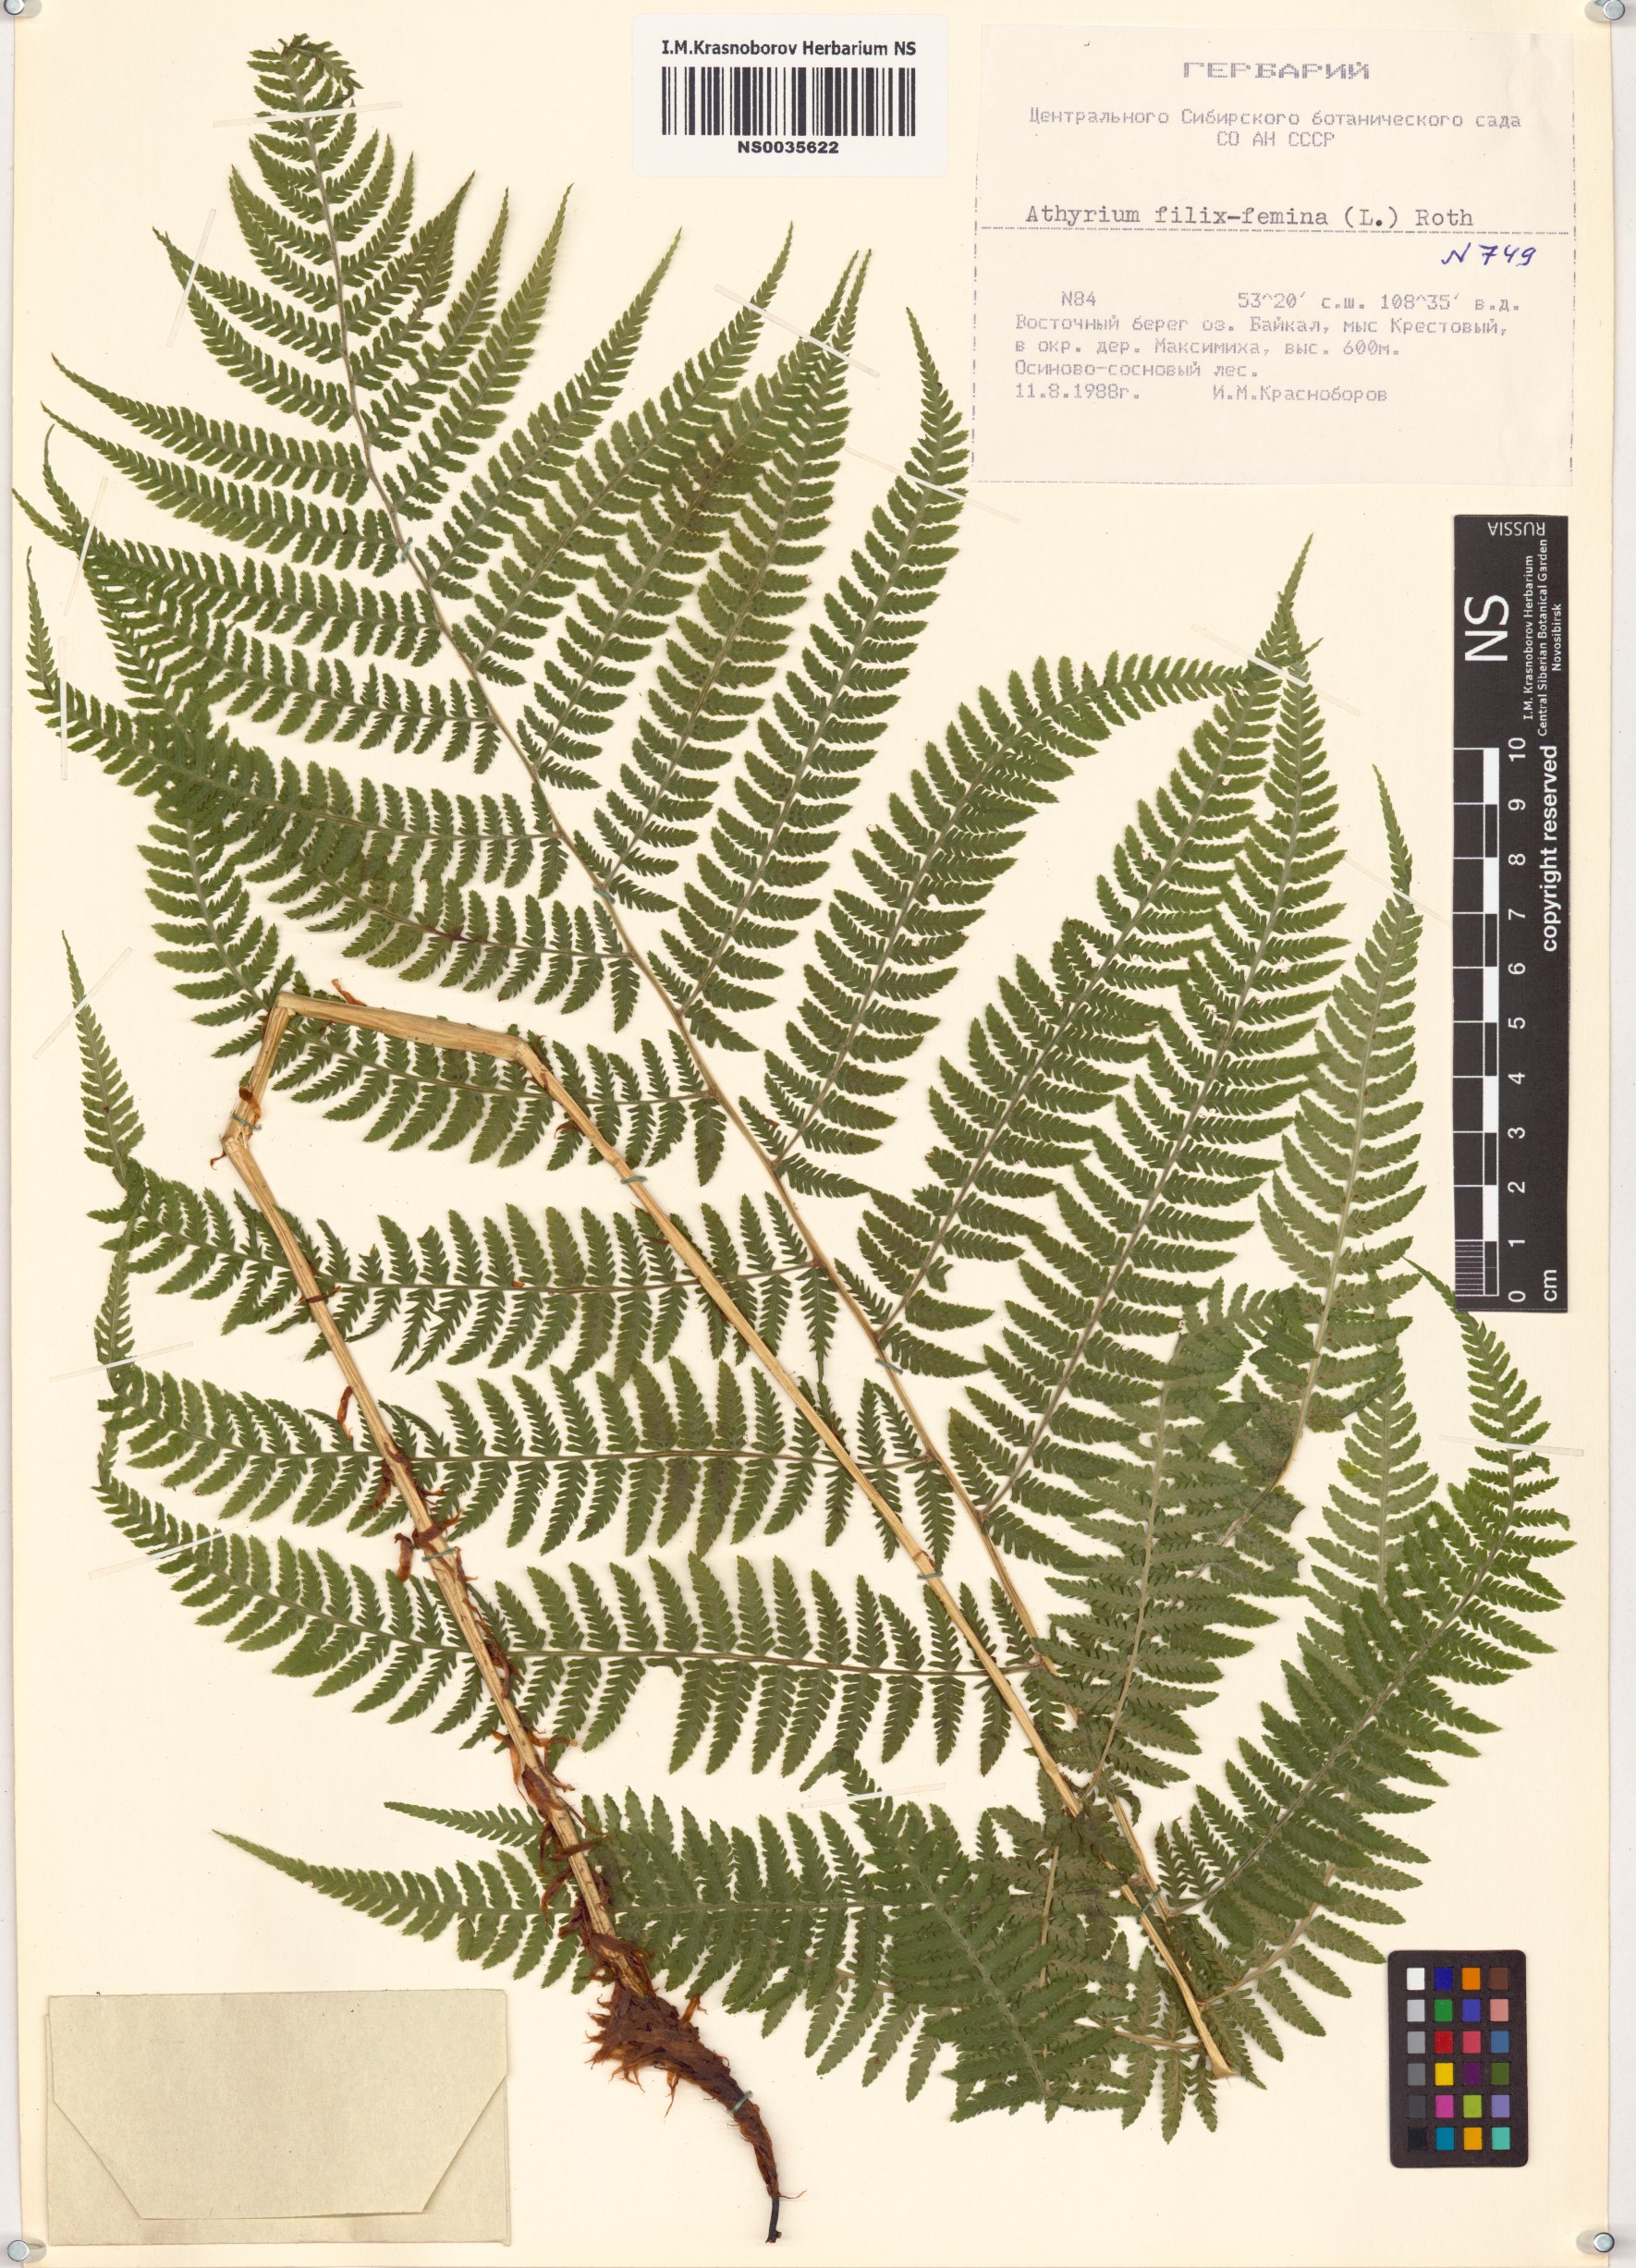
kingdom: Plantae
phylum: Tracheophyta
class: Polypodiopsida
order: Polypodiales
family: Athyriaceae
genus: Athyrium
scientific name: Athyrium filix-femina
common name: Lady fern
